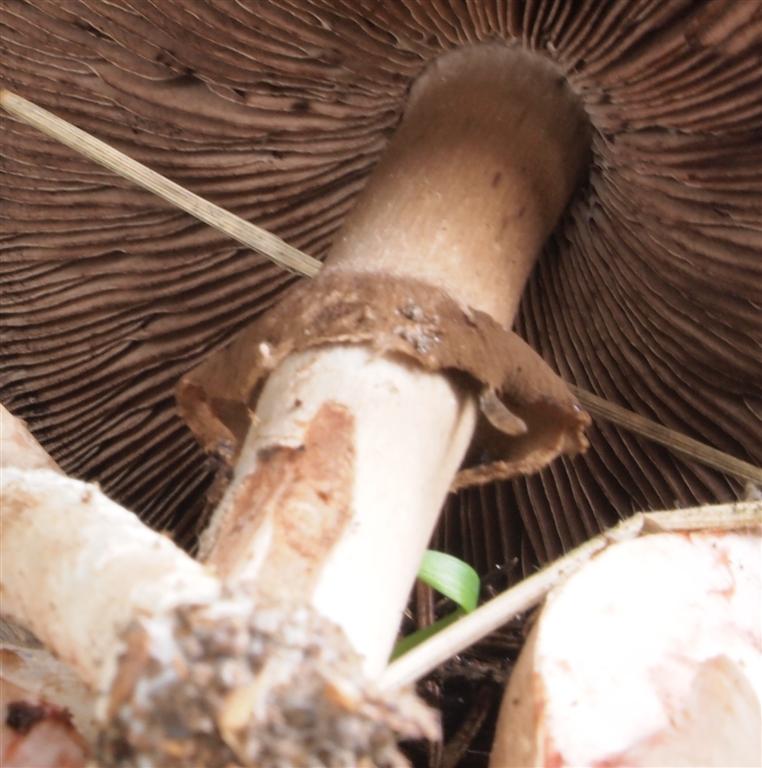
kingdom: Fungi
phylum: Basidiomycota
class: Agaricomycetes
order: Agaricales
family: Agaricaceae
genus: Agaricus
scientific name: Agaricus sylvaticus
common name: lille blod-champignon
